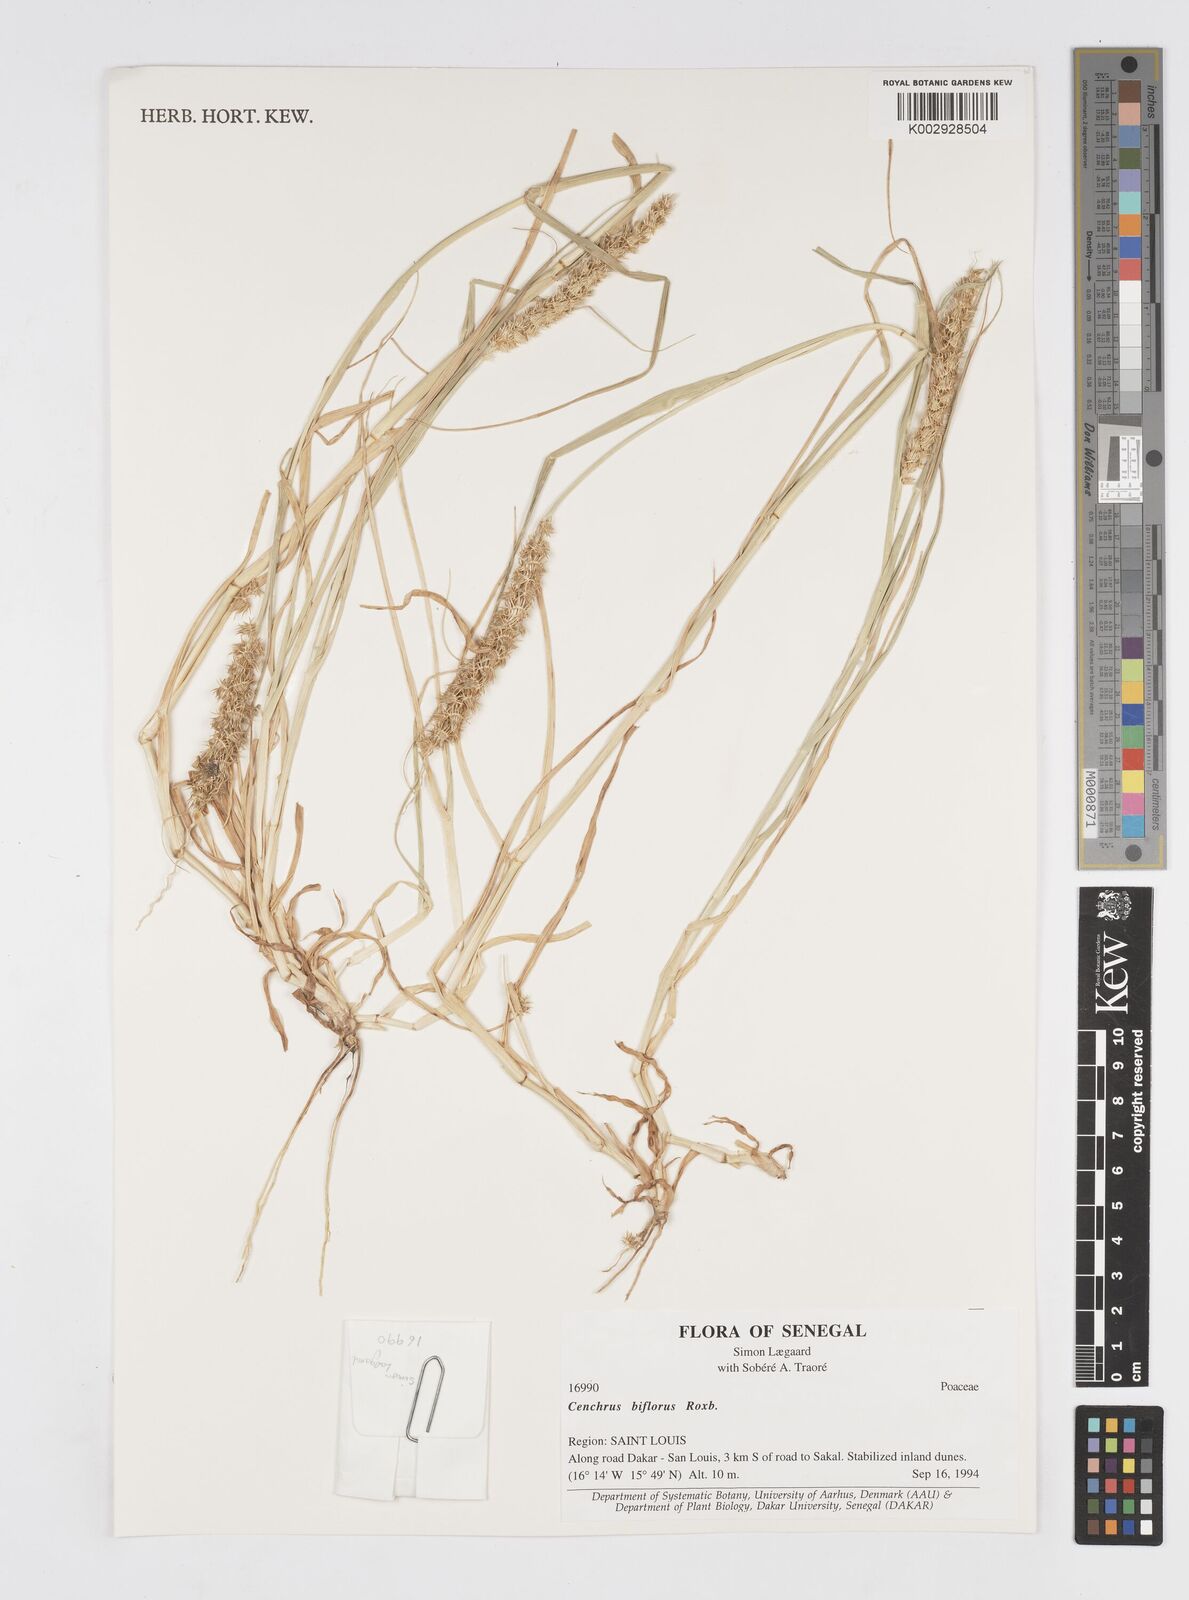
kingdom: Plantae
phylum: Tracheophyta
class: Liliopsida
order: Poales
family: Poaceae
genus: Cenchrus
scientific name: Cenchrus biflorus
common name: Indian sandbur
